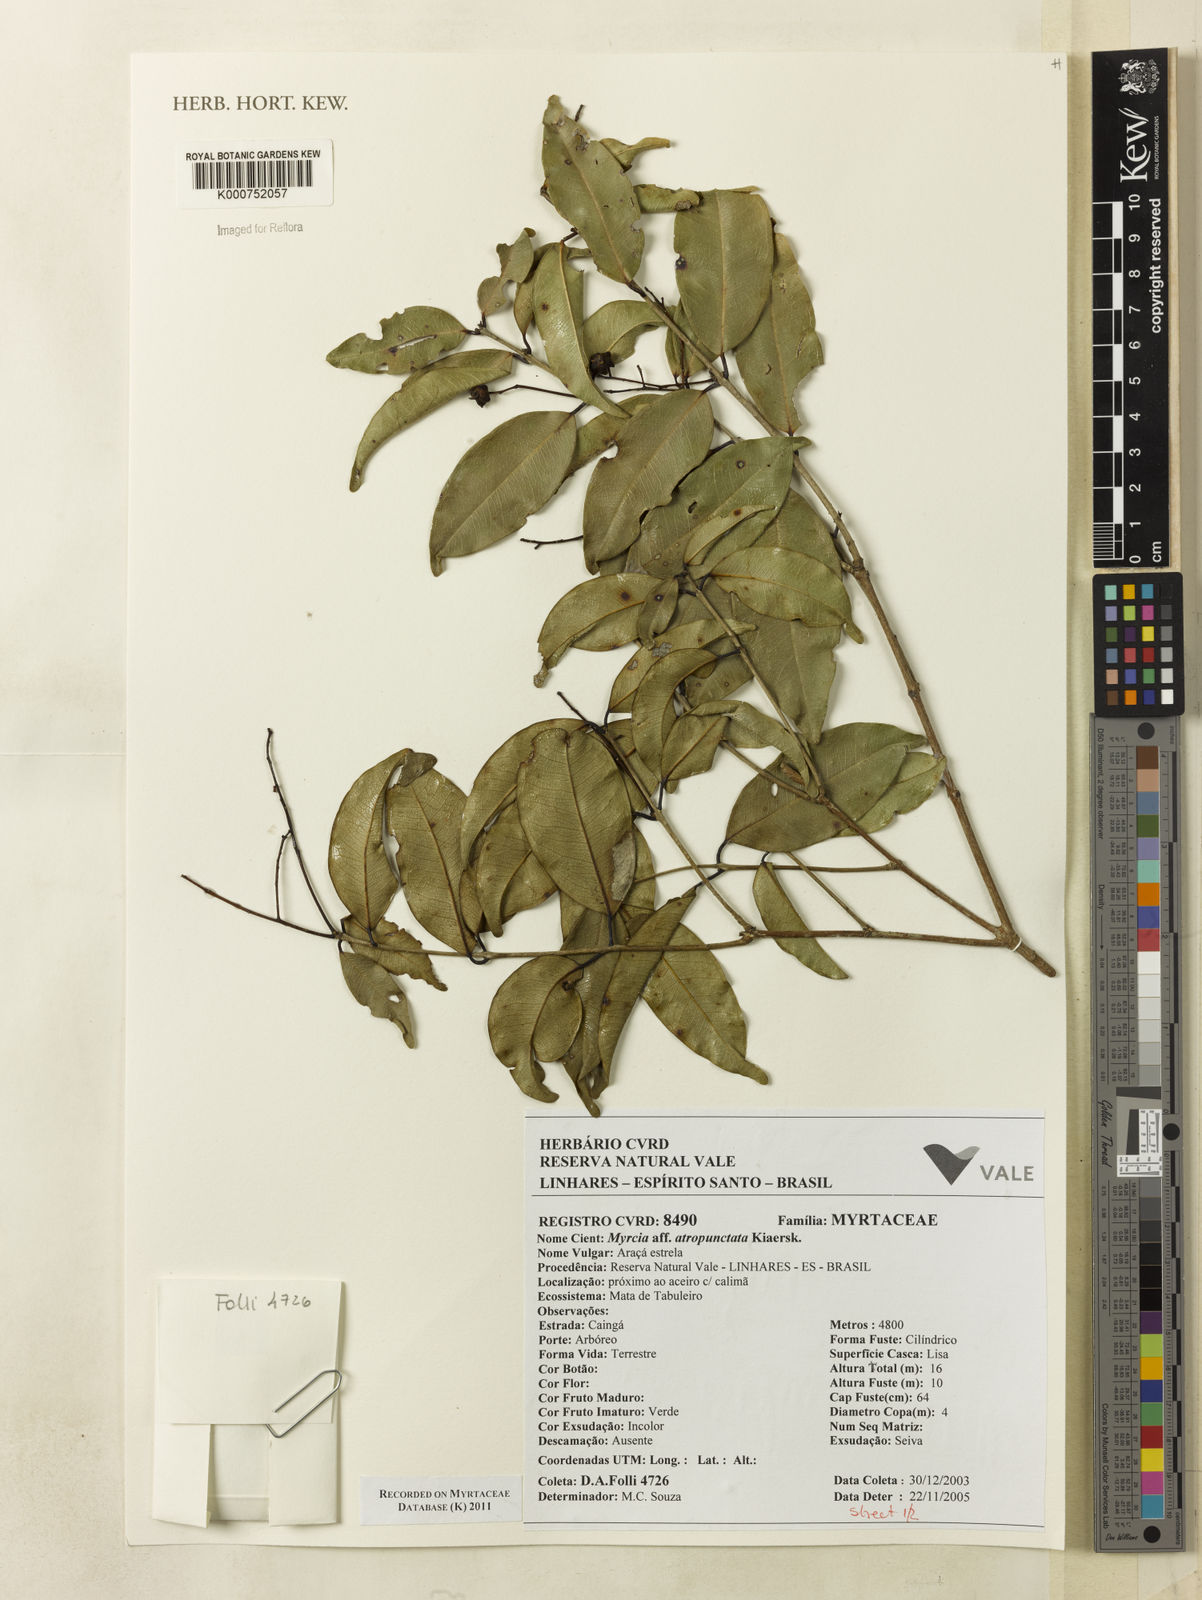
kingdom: Plantae
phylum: Tracheophyta
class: Magnoliopsida
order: Myrtales
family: Myrtaceae
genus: Myrcia
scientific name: Myrcia ovata
